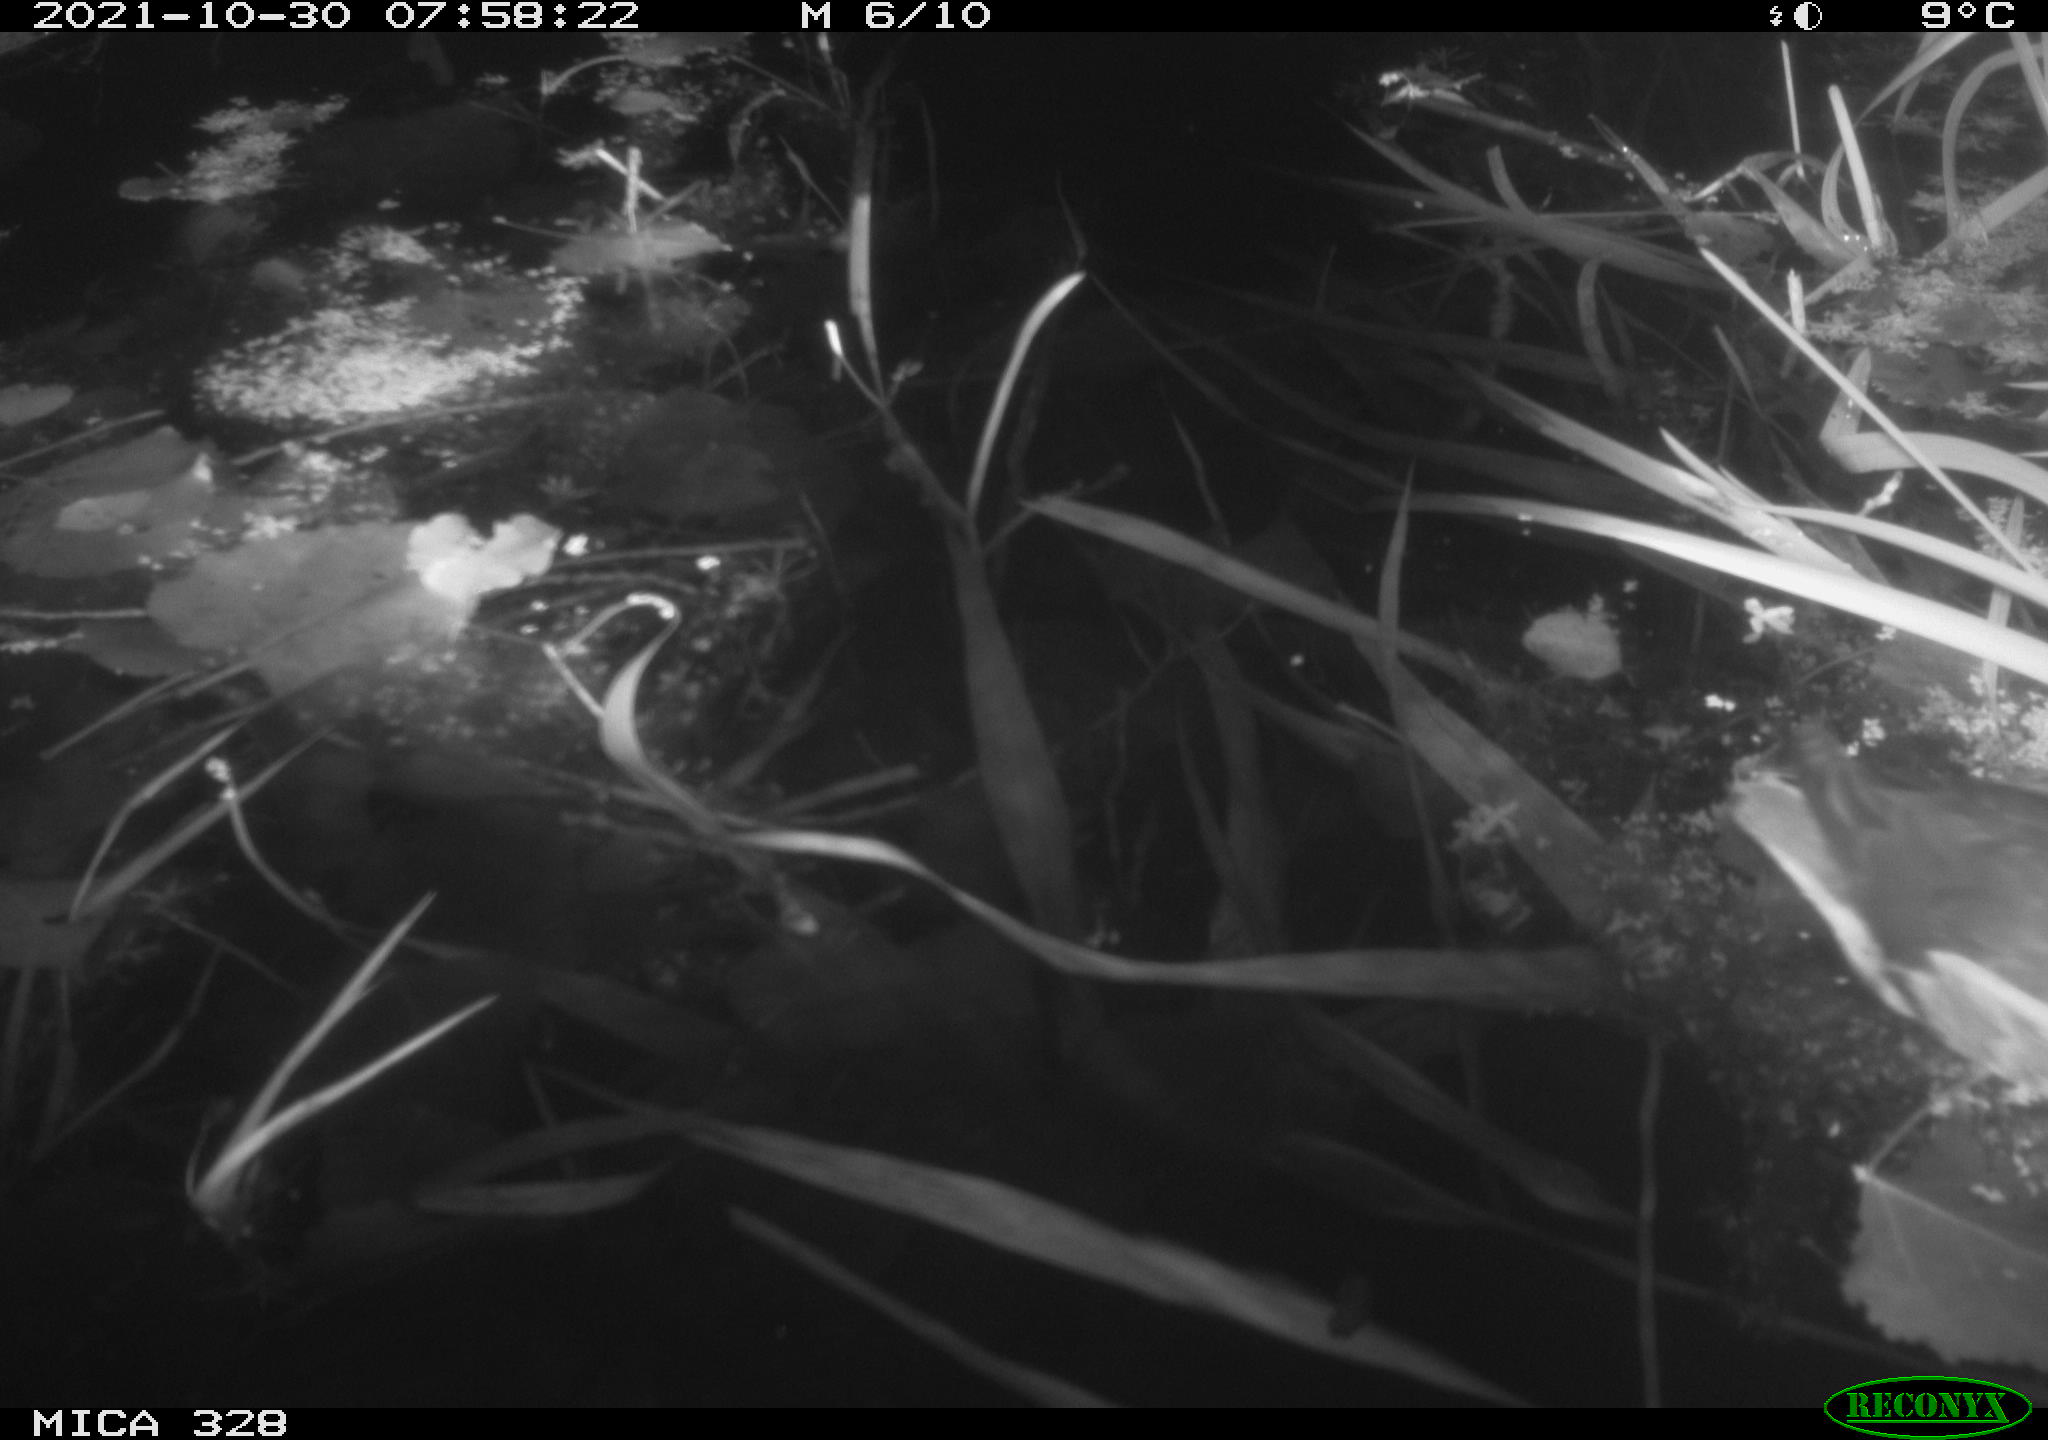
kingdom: Animalia
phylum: Chordata
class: Aves
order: Gruiformes
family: Rallidae
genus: Gallinula
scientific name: Gallinula chloropus
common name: Common moorhen
